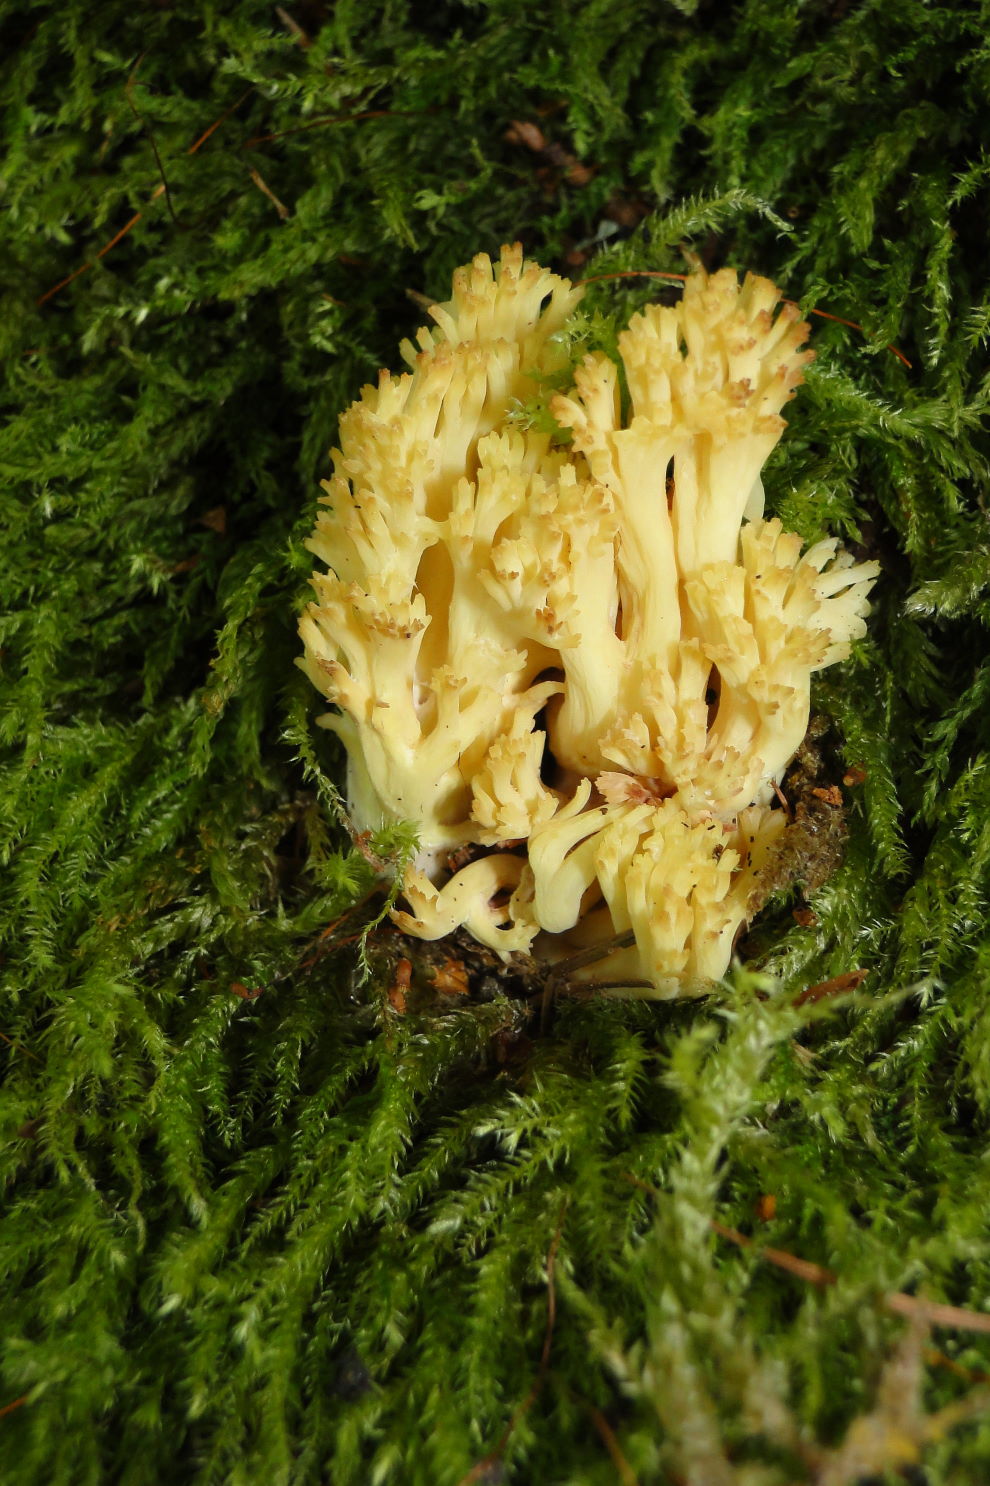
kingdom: Fungi
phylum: Basidiomycota
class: Agaricomycetes
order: Gomphales
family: Gomphaceae
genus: Ramaria
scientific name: Ramaria sanguinea
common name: blodplettet koralsvamp
